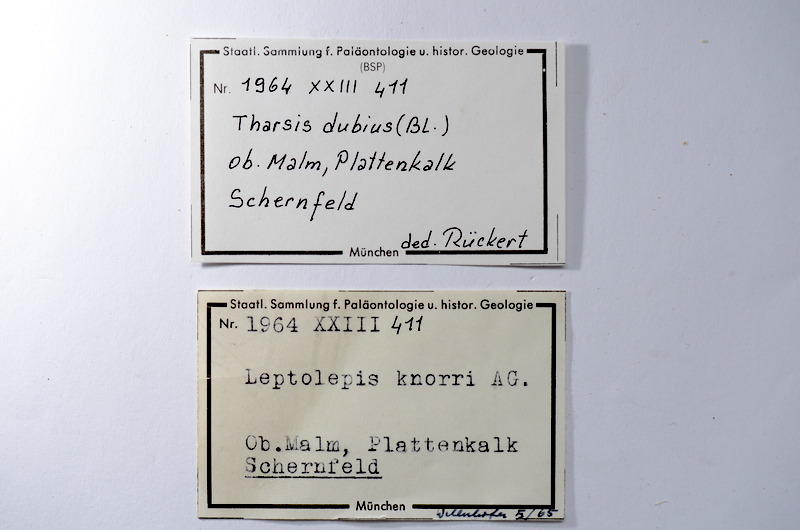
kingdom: Animalia
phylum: Chordata
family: Ascalaboidae
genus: Tharsis
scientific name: Tharsis dubius
